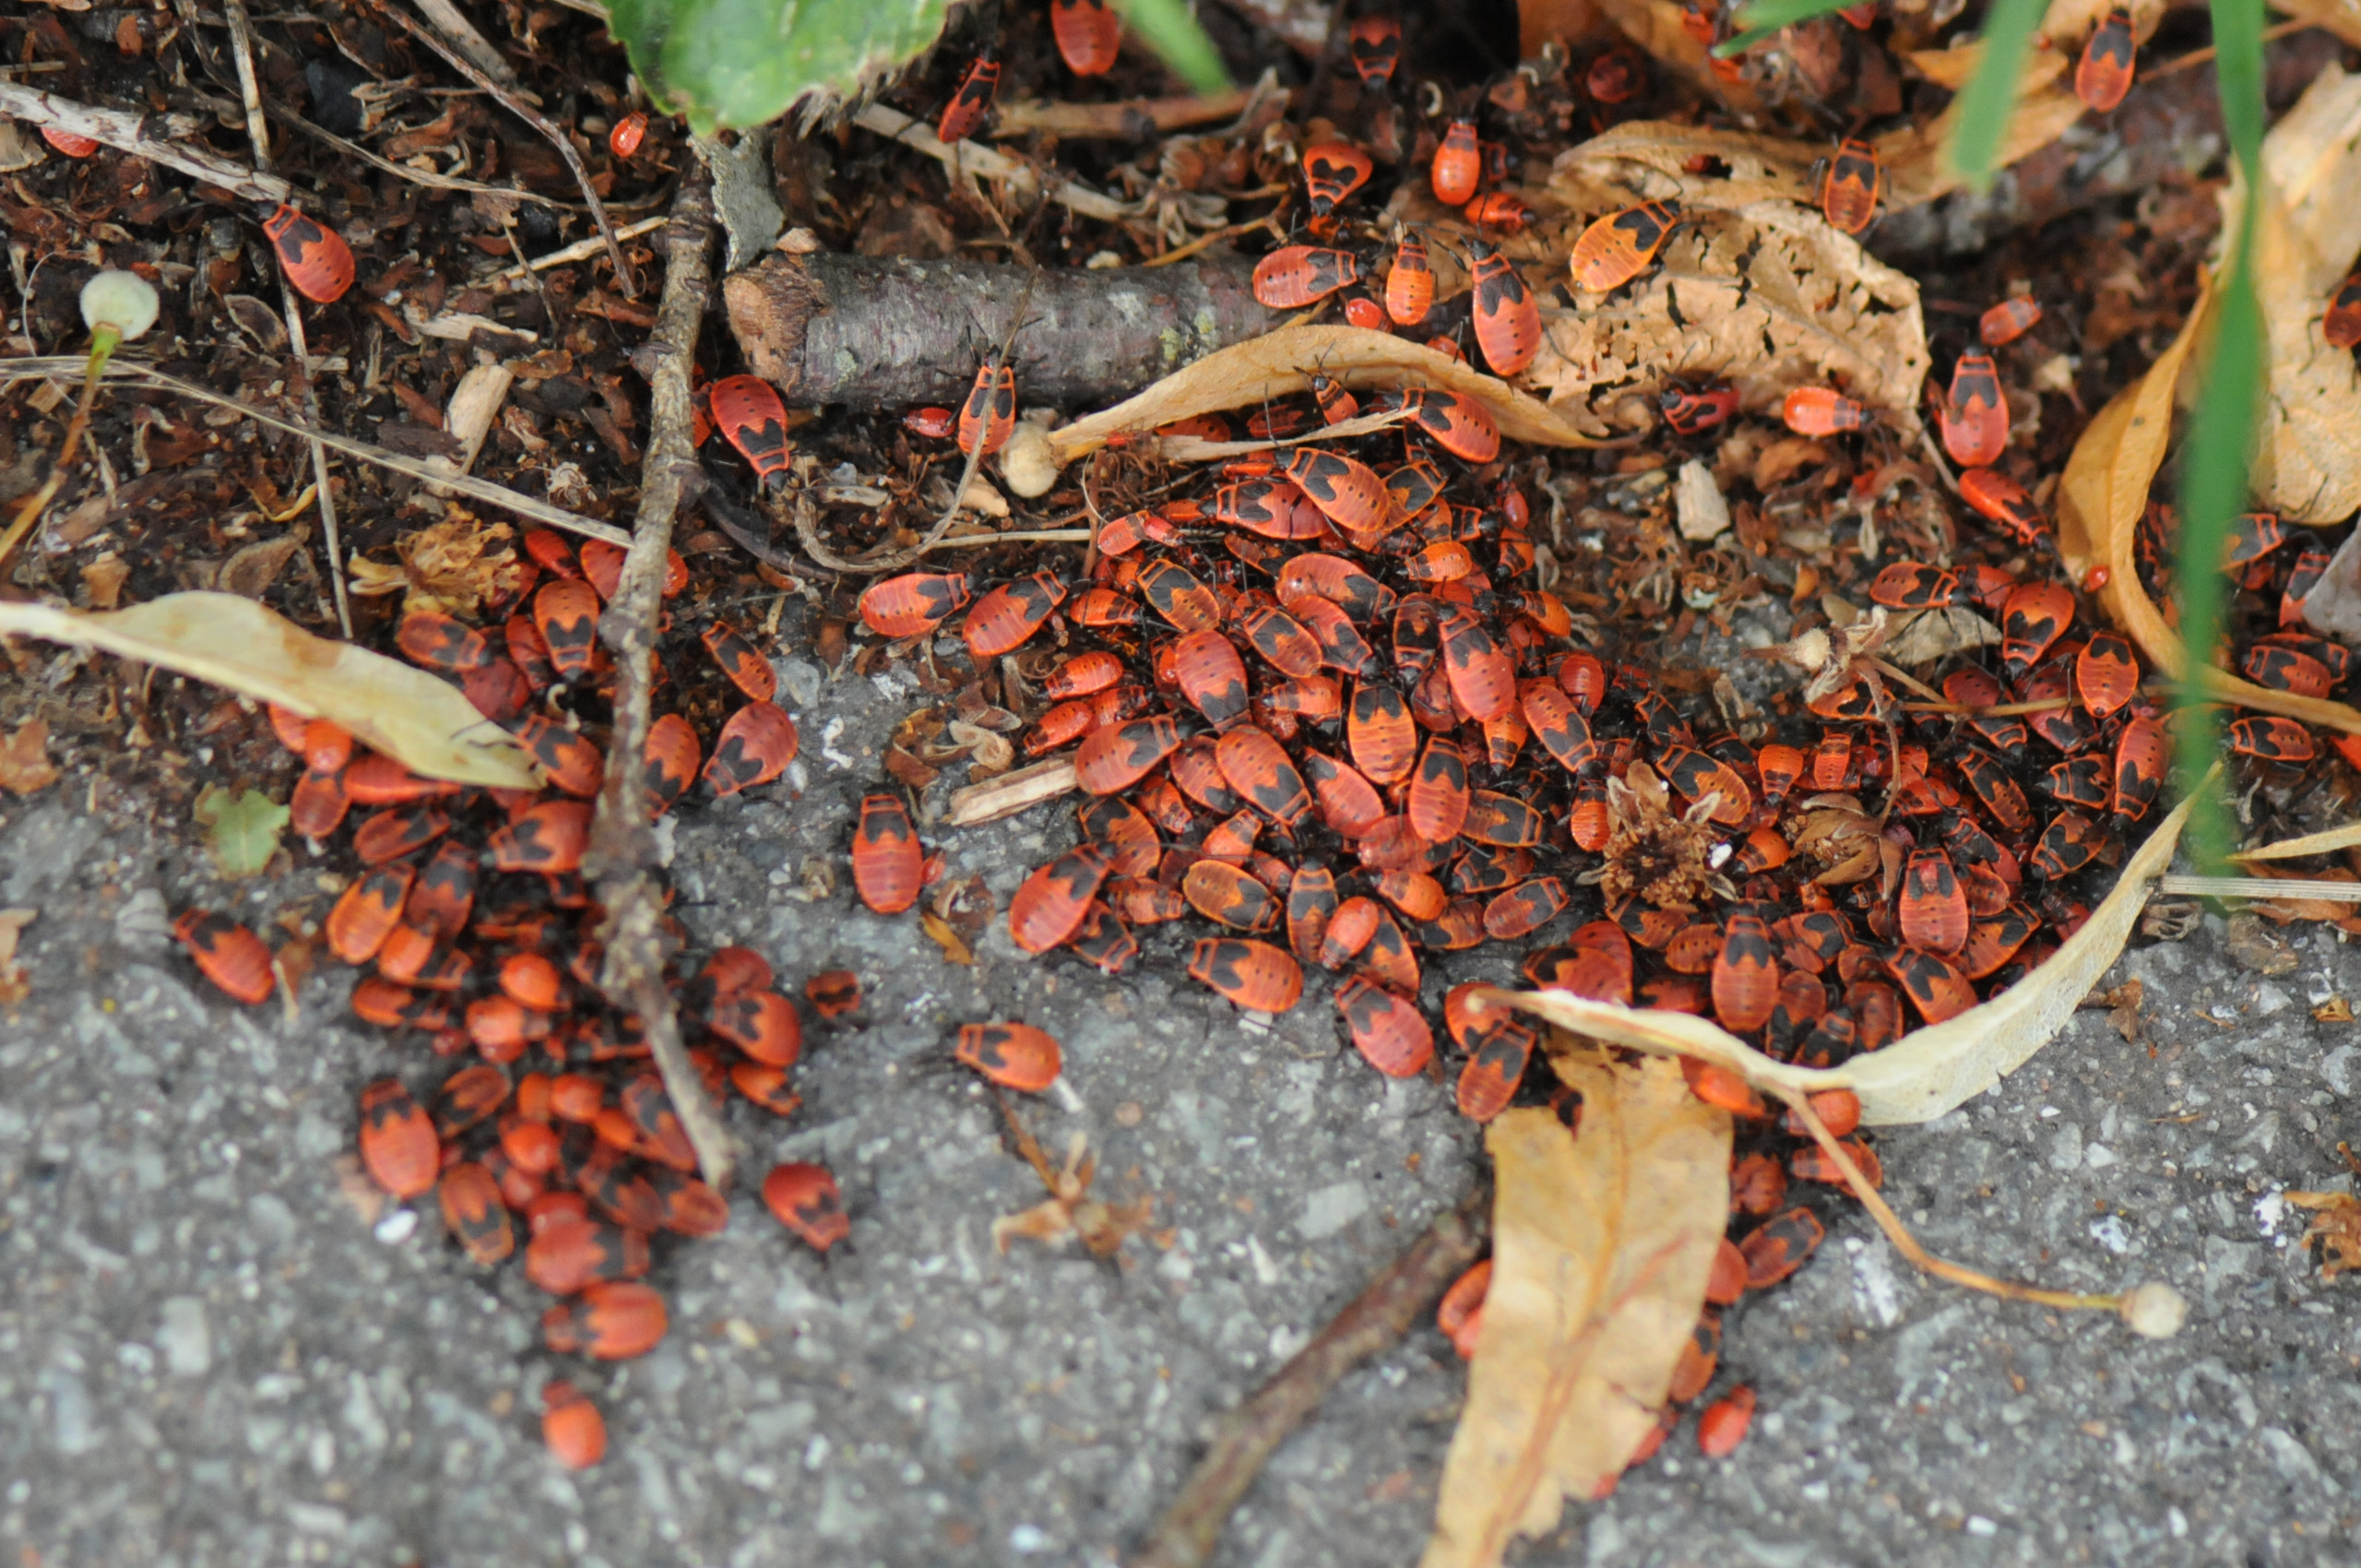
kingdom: Animalia
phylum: Arthropoda
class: Insecta
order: Hemiptera
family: Pyrrhocoridae
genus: Pyrrhocoris
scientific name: Pyrrhocoris apterus
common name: Ildtæge
